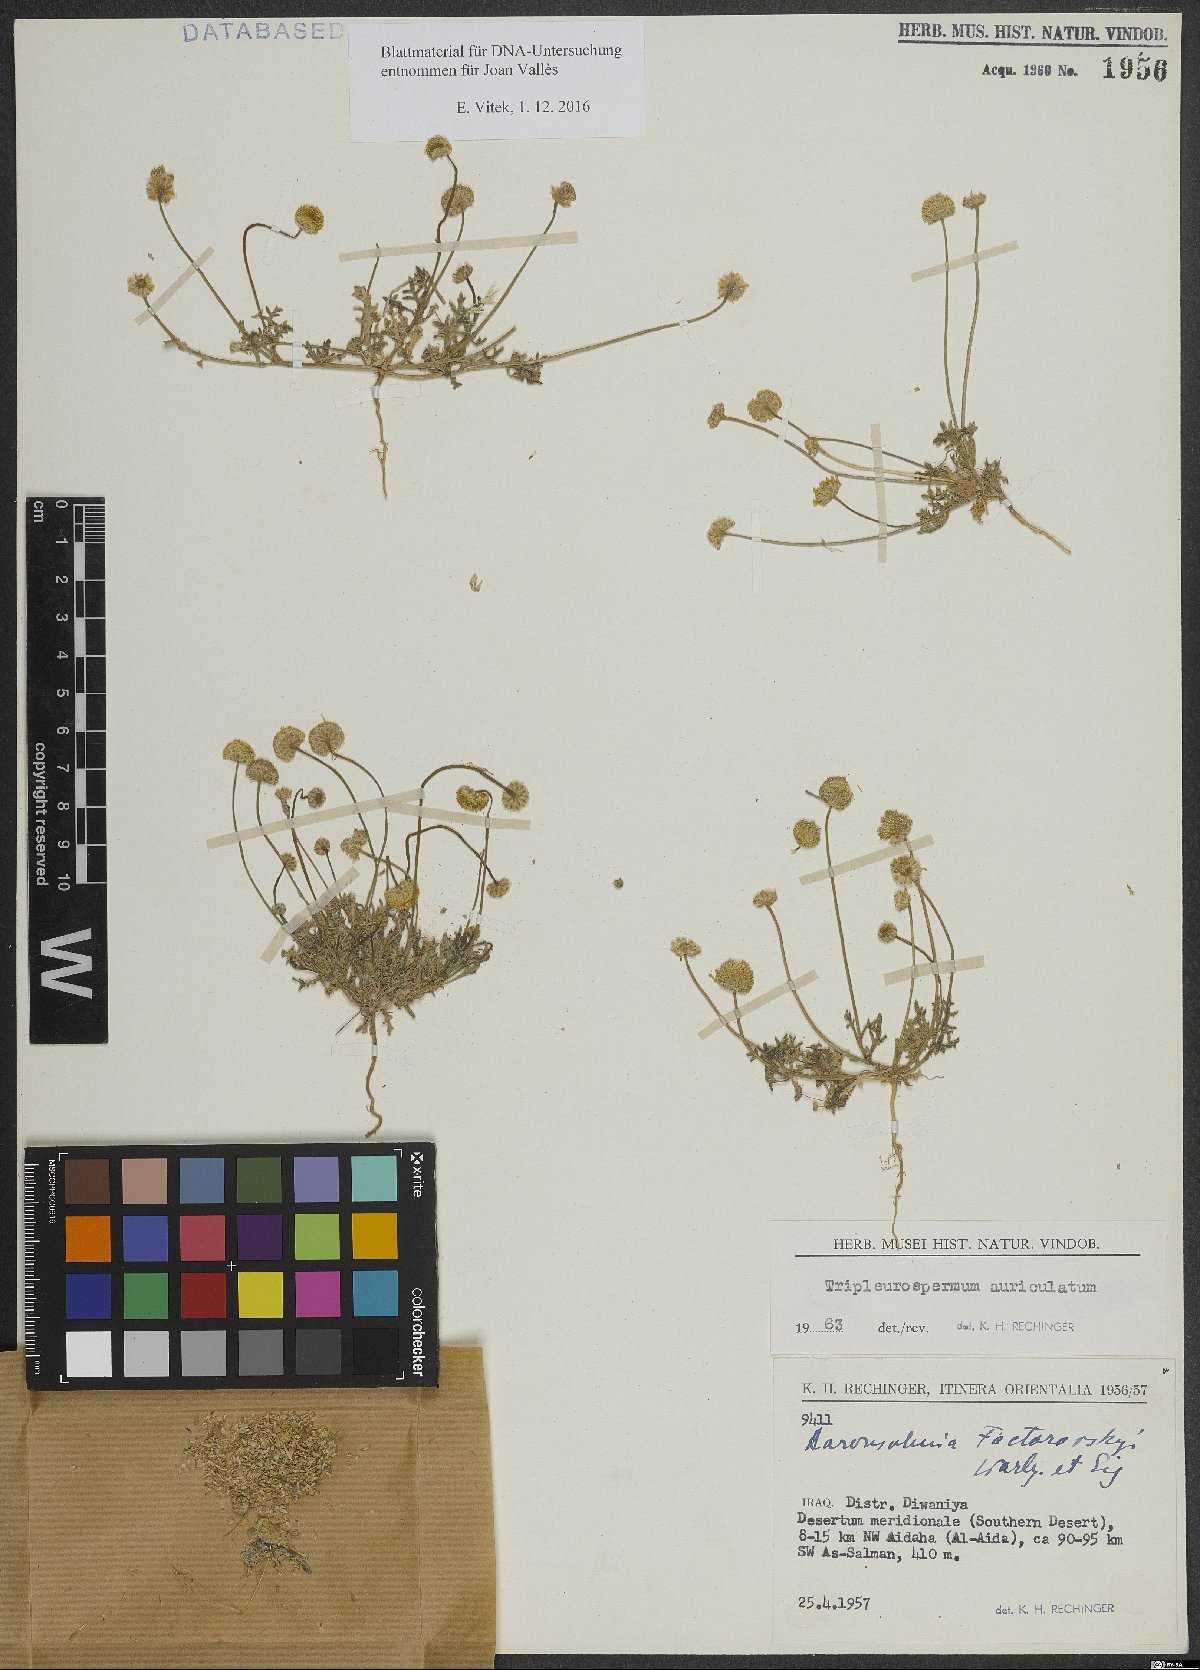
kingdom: Plantae
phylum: Tracheophyta
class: Magnoliopsida
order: Asterales
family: Asteraceae
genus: Tripleurospermum
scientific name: Tripleurospermum auriculatum
